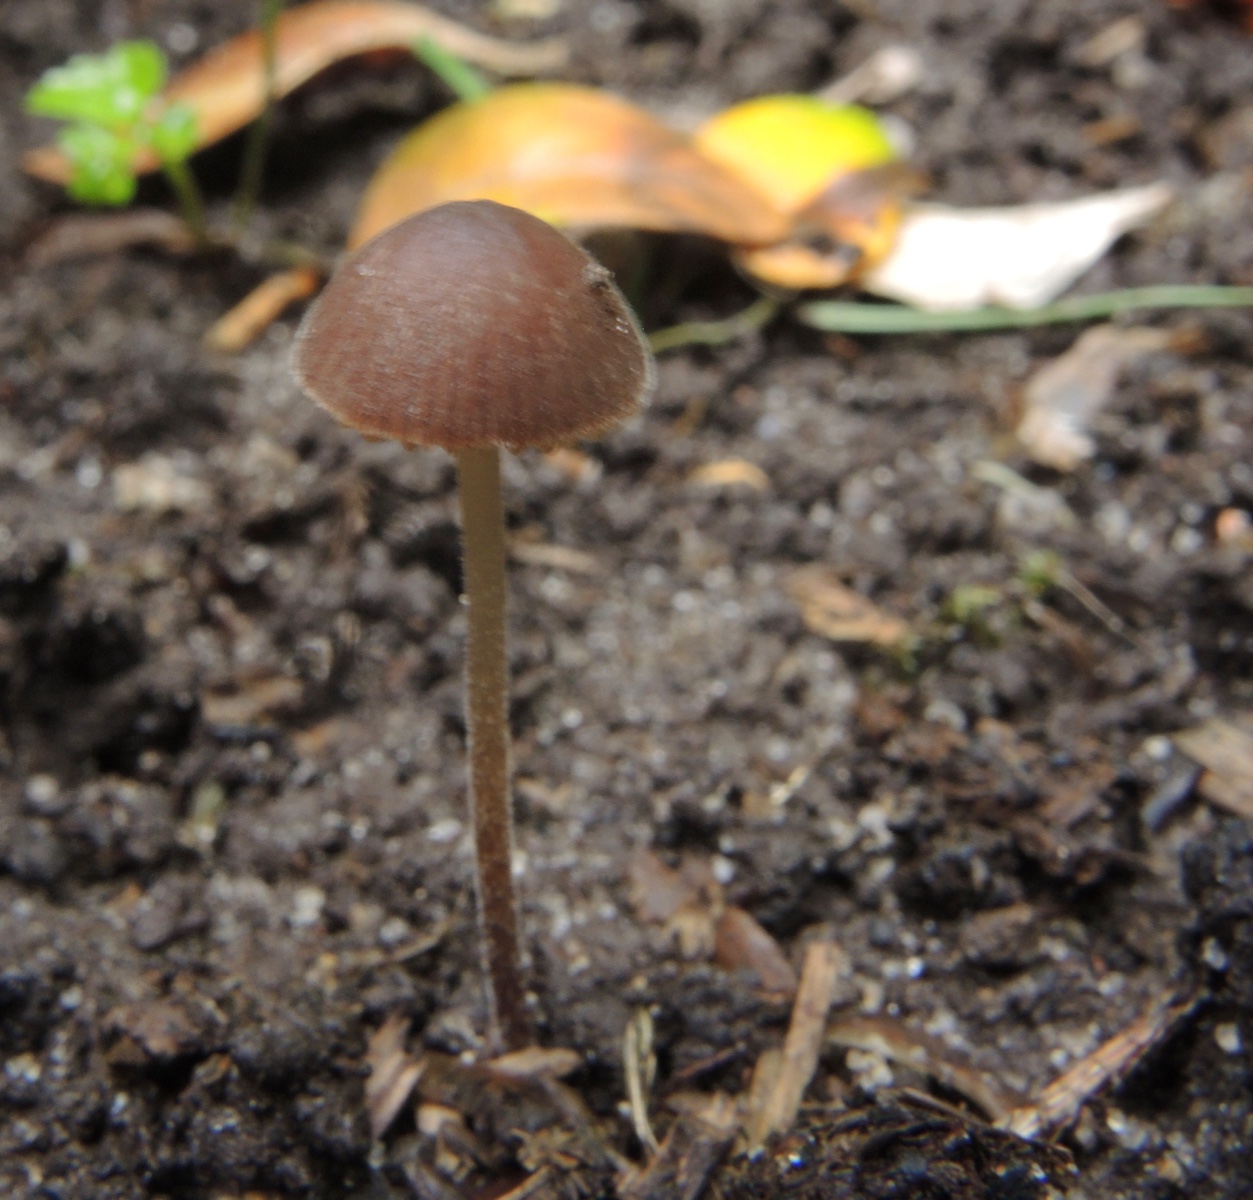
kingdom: Fungi
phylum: Basidiomycota
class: Agaricomycetes
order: Agaricales
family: Bolbitiaceae
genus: Conocybe
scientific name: Conocybe bisporigera
